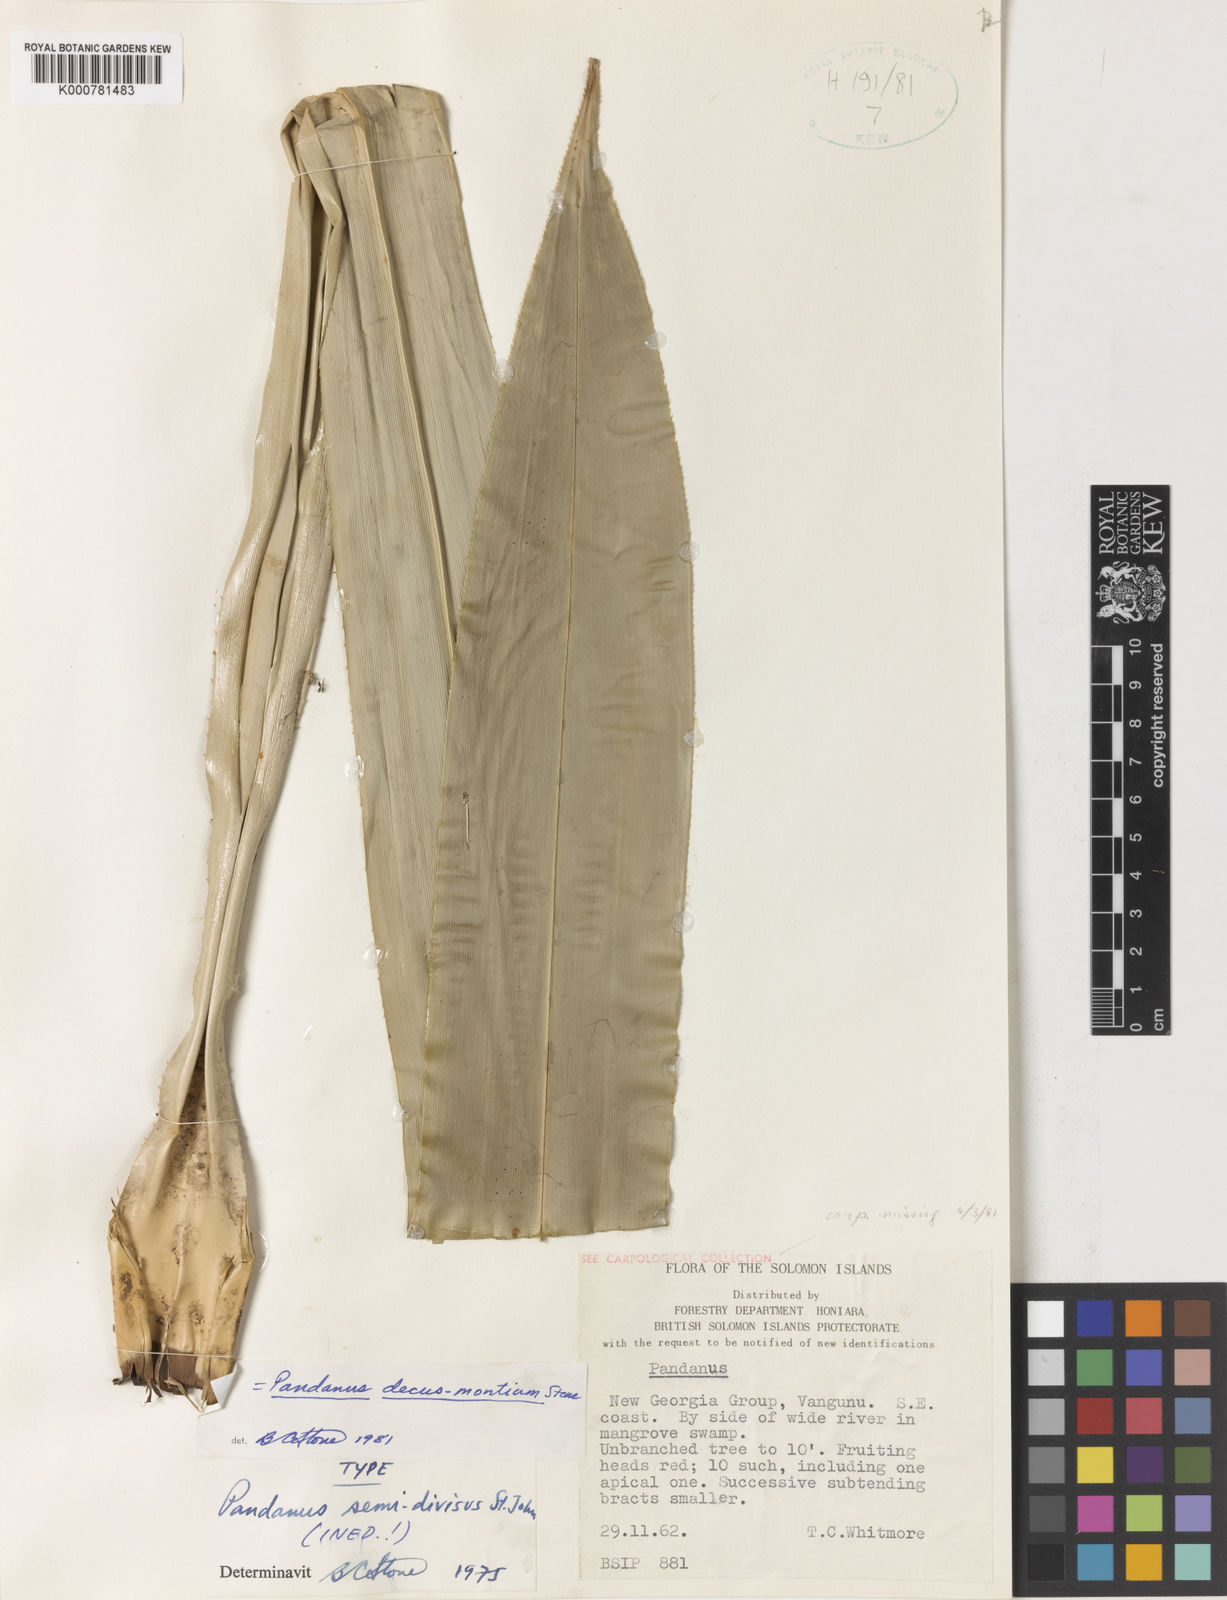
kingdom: Plantae
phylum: Tracheophyta
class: Liliopsida
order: Pandanales
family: Pandanaceae
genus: Pandanus
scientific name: Pandanus decus-montium
